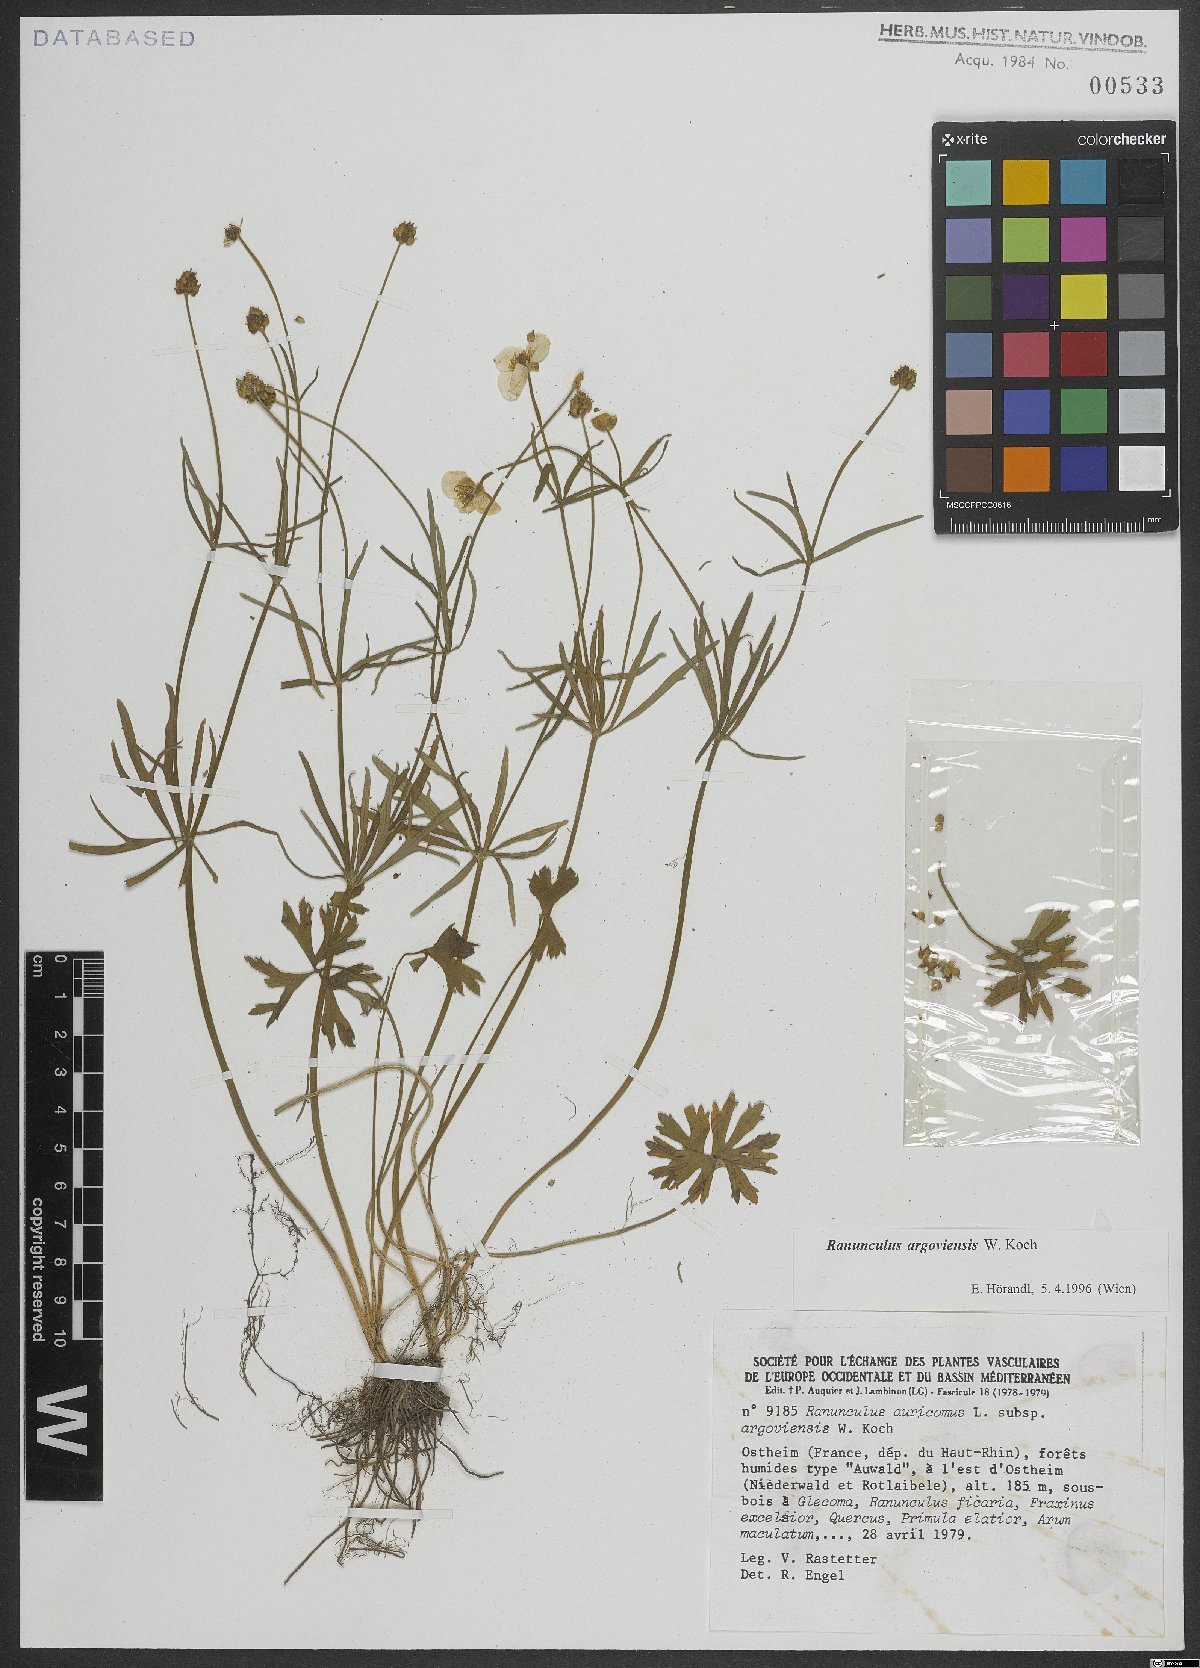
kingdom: Plantae
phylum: Tracheophyta
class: Magnoliopsida
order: Ranunculales
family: Ranunculaceae
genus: Ranunculus
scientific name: Ranunculus argoviensis
